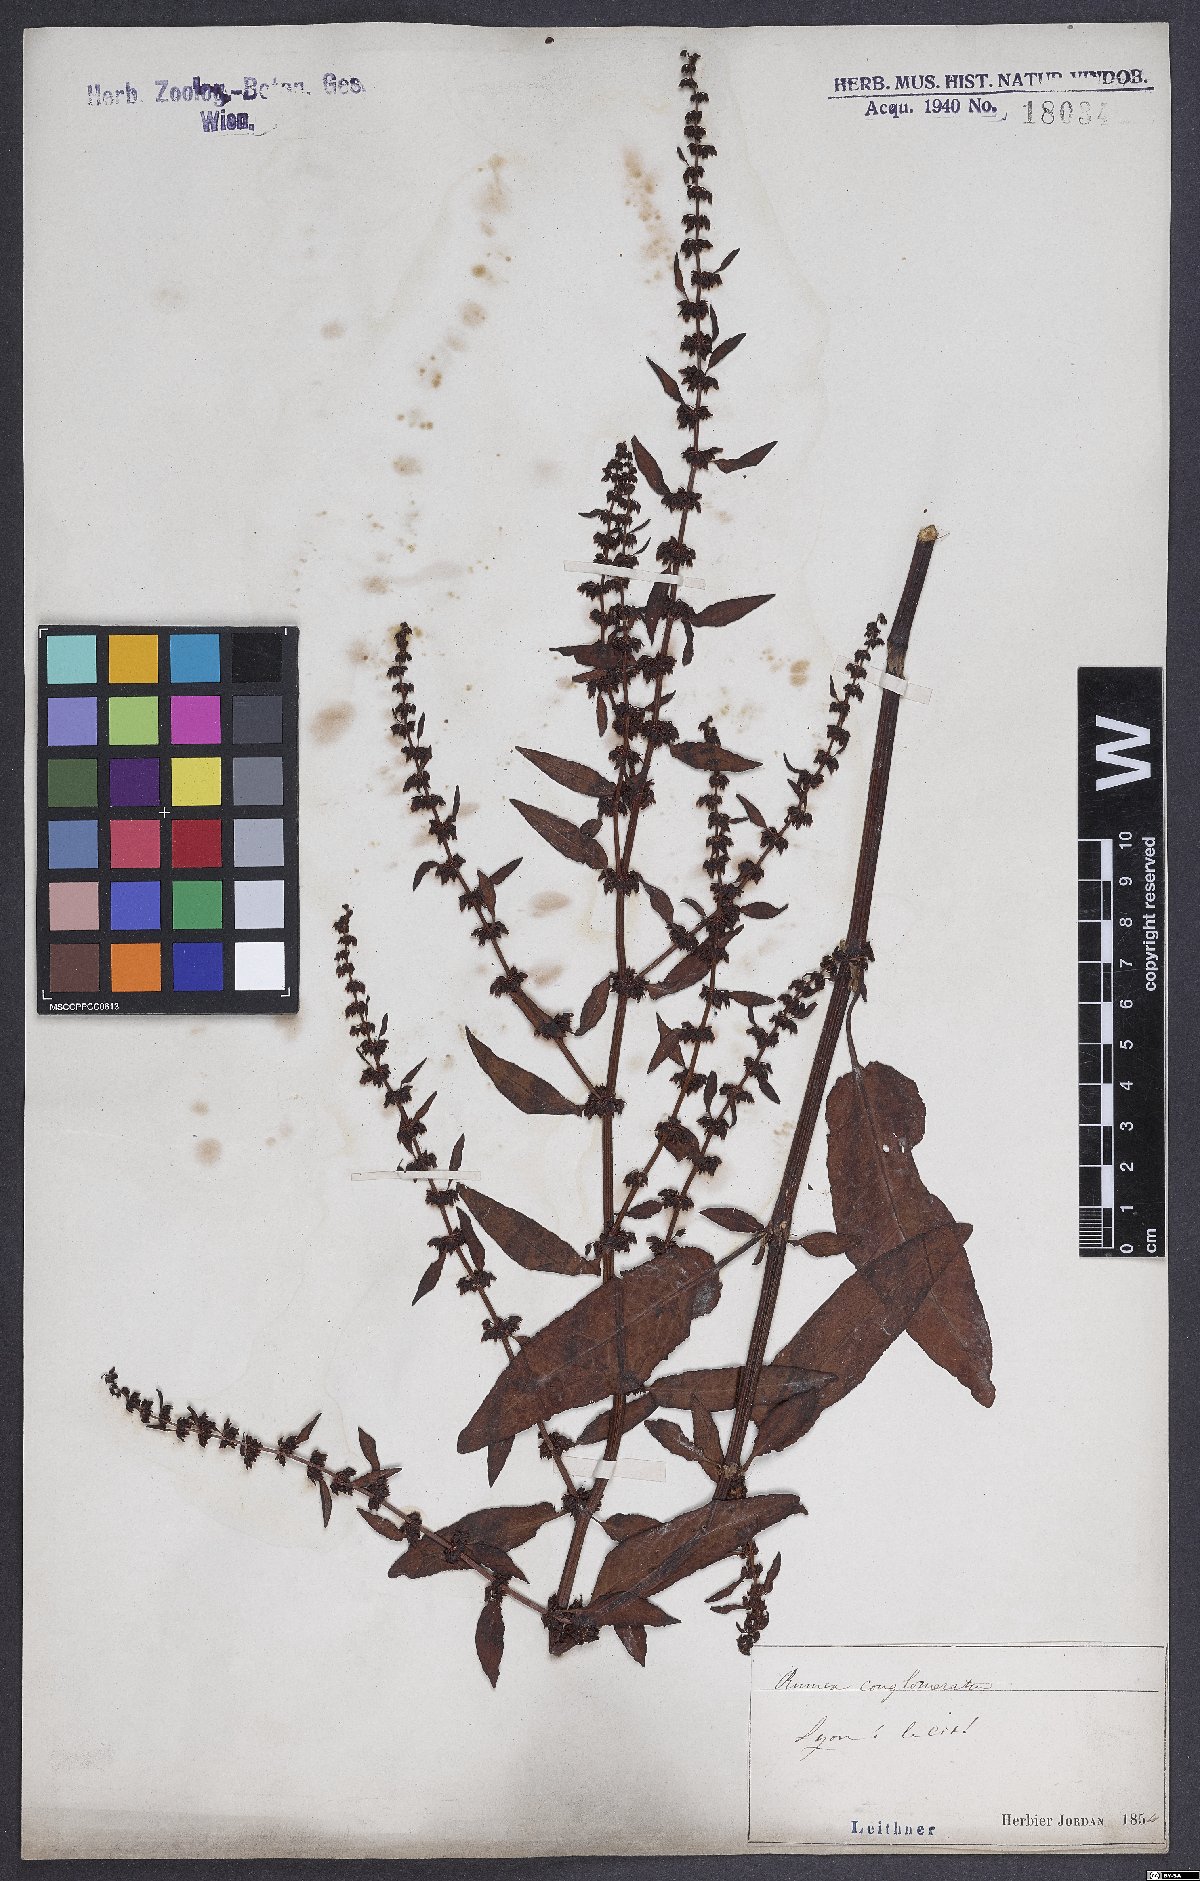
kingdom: Plantae
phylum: Tracheophyta
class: Magnoliopsida
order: Caryophyllales
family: Polygonaceae
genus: Rumex
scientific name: Rumex conglomeratus
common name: Clustered dock
